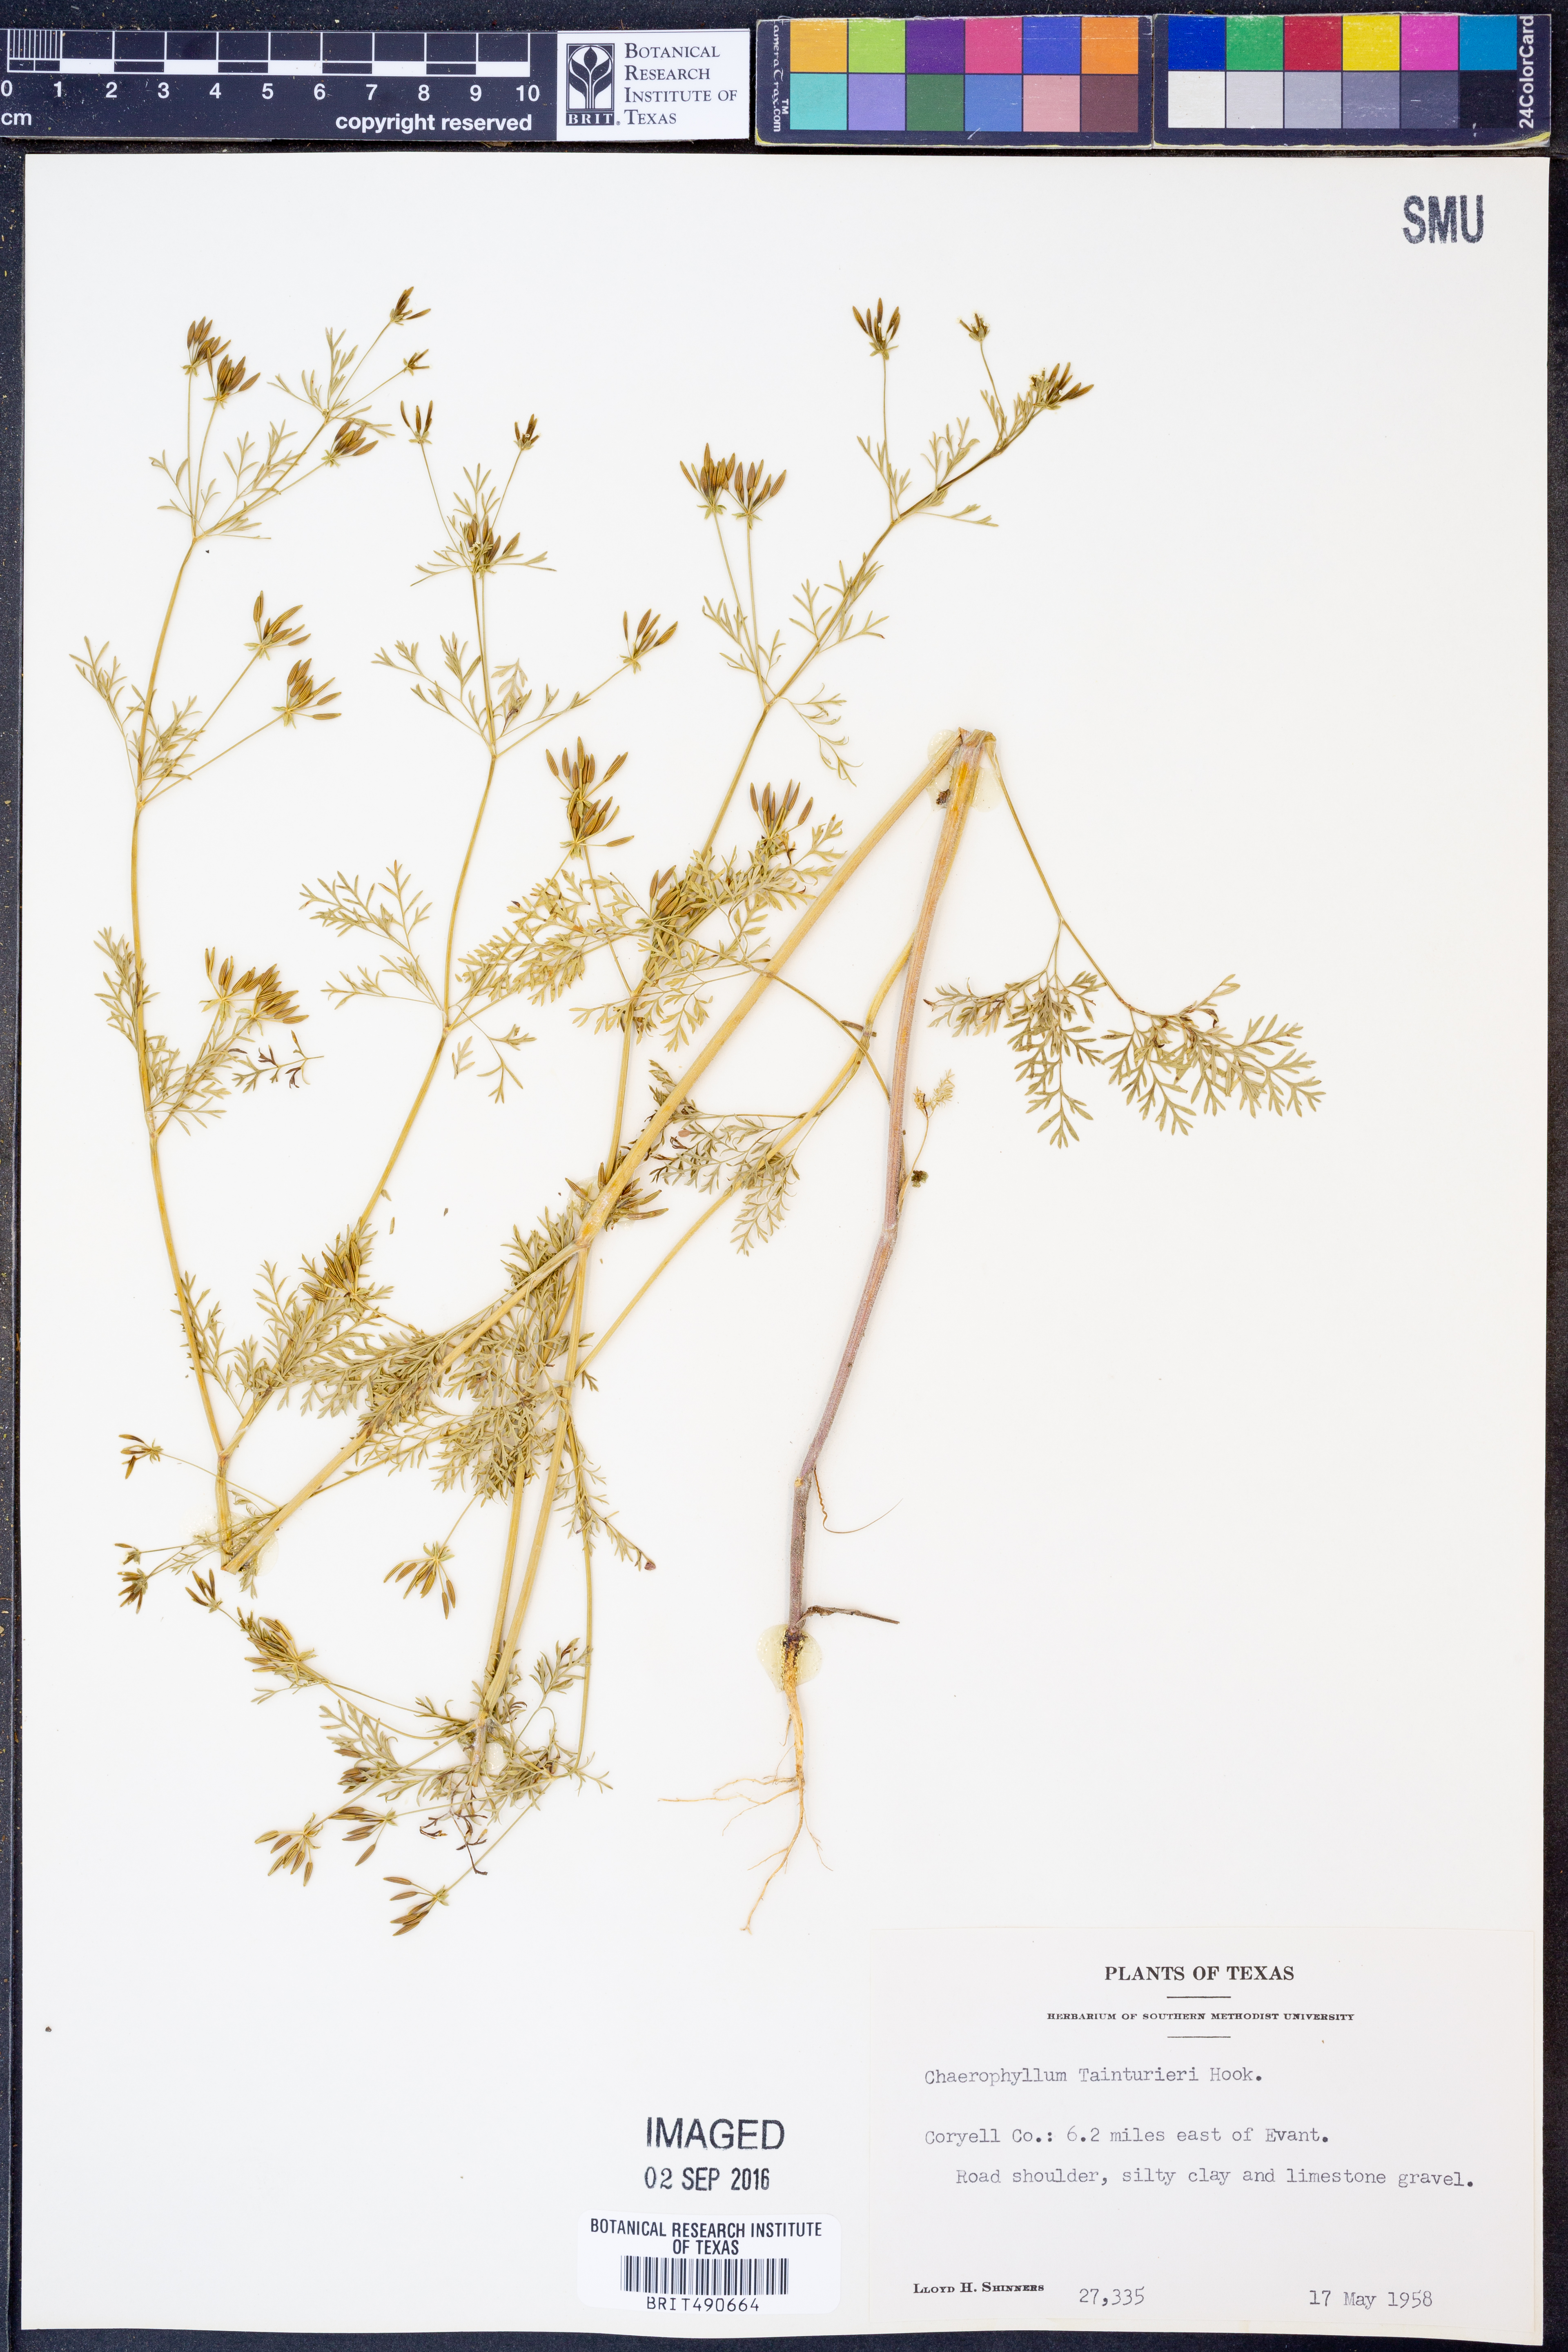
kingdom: Plantae
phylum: Tracheophyta
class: Magnoliopsida
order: Apiales
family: Apiaceae
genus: Chaerophyllum
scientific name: Chaerophyllum tainturieri
